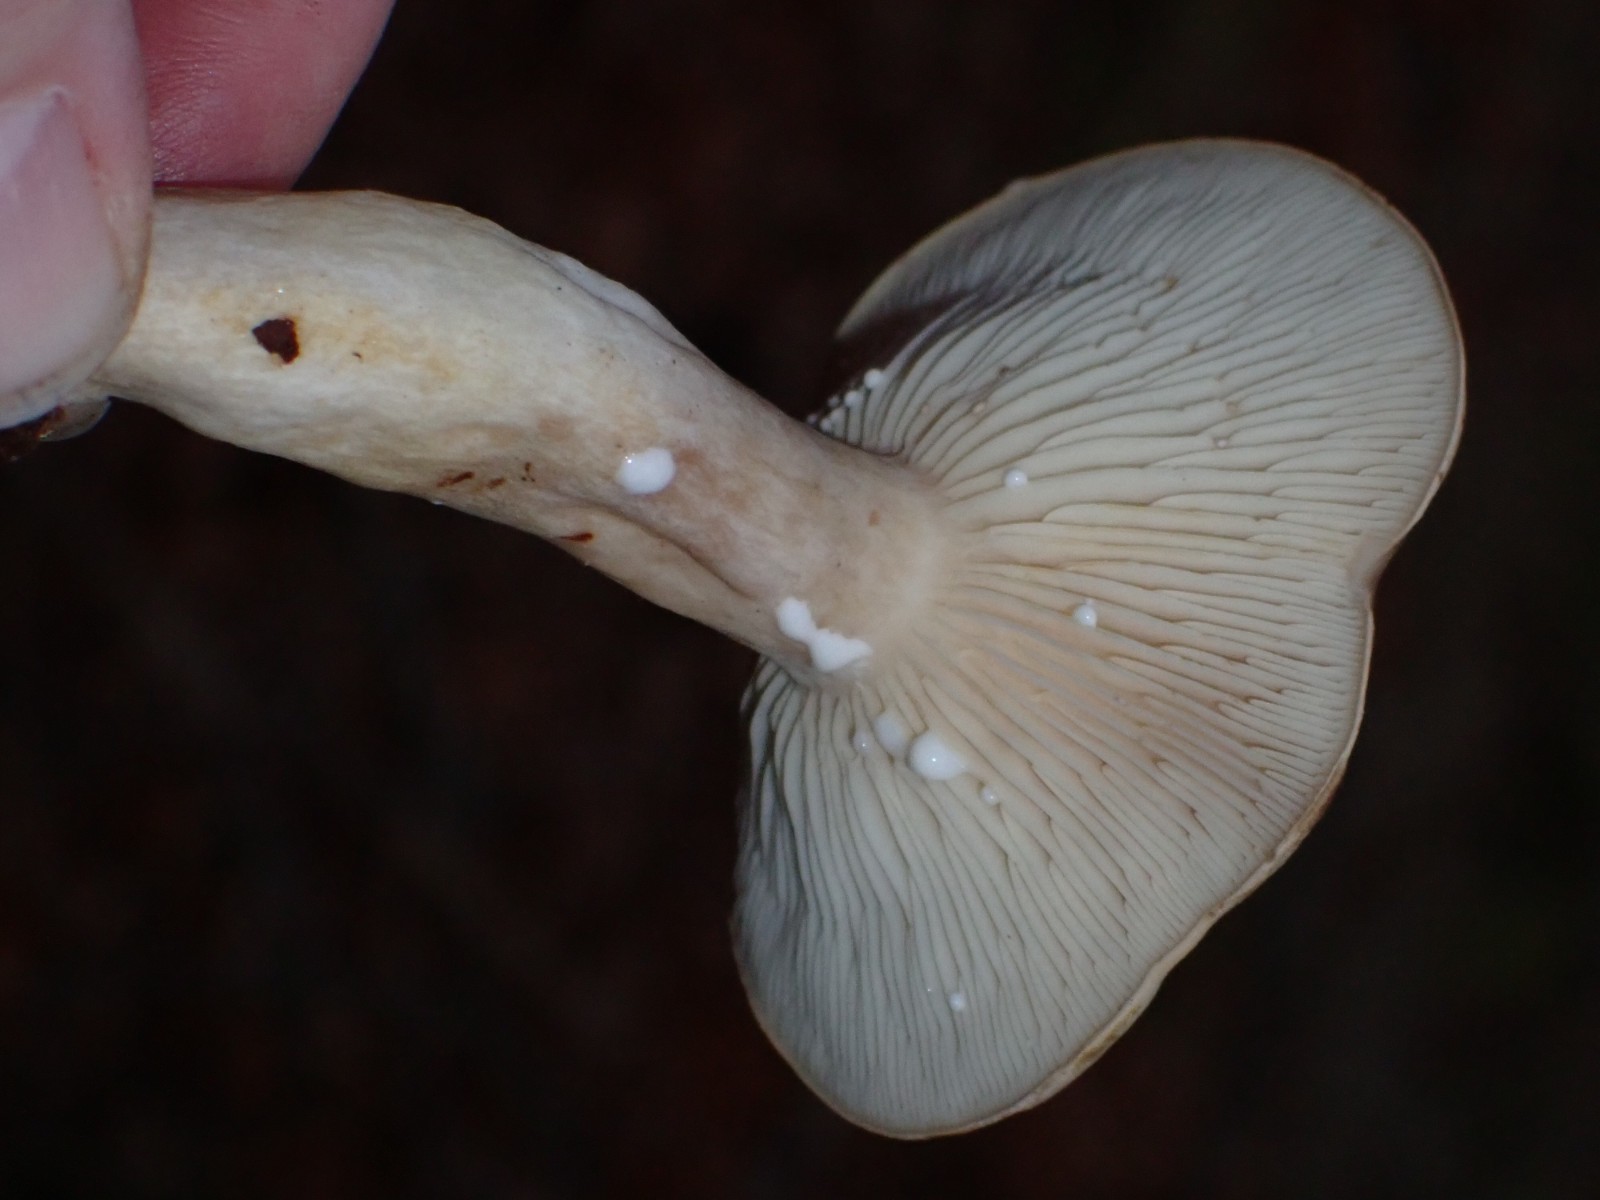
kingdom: Fungi
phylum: Basidiomycota
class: Agaricomycetes
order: Russulales
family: Russulaceae
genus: Lactarius
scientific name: Lactarius blennius
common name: dråbeplettet mælkehat
